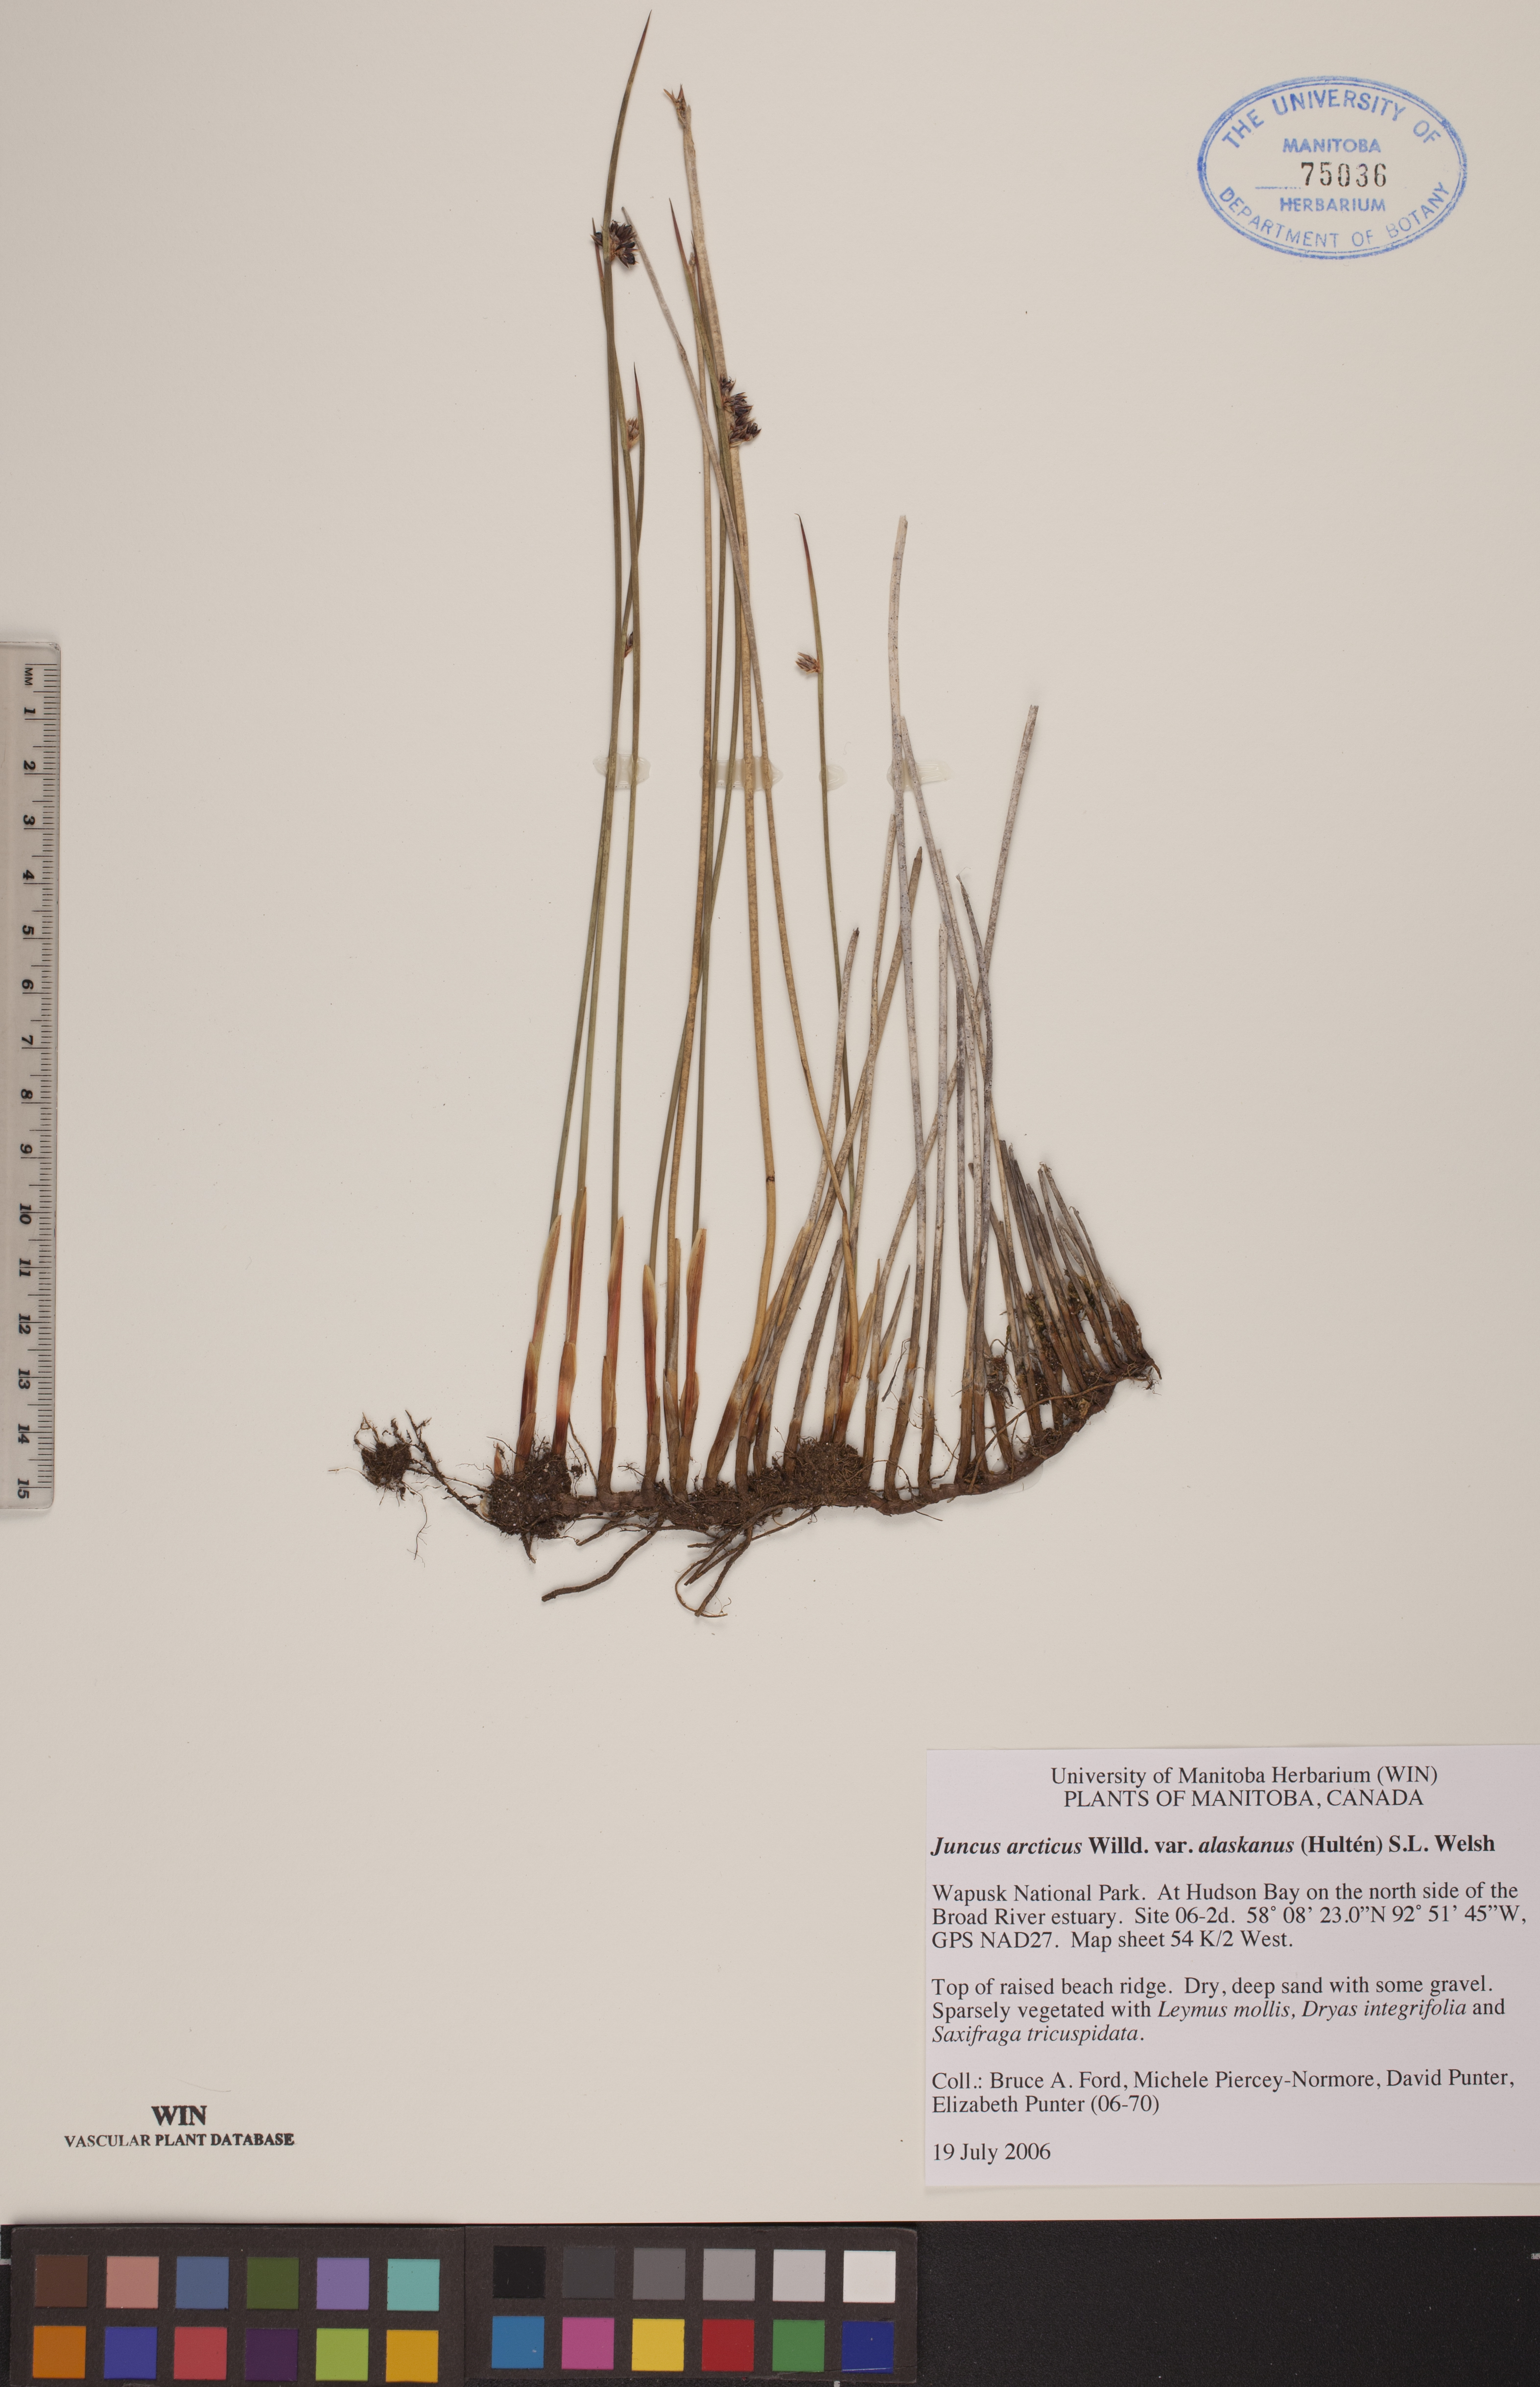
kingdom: Plantae
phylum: Tracheophyta
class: Liliopsida
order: Poales
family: Juncaceae
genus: Juncus
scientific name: Juncus arcticus
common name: Arctic rush
